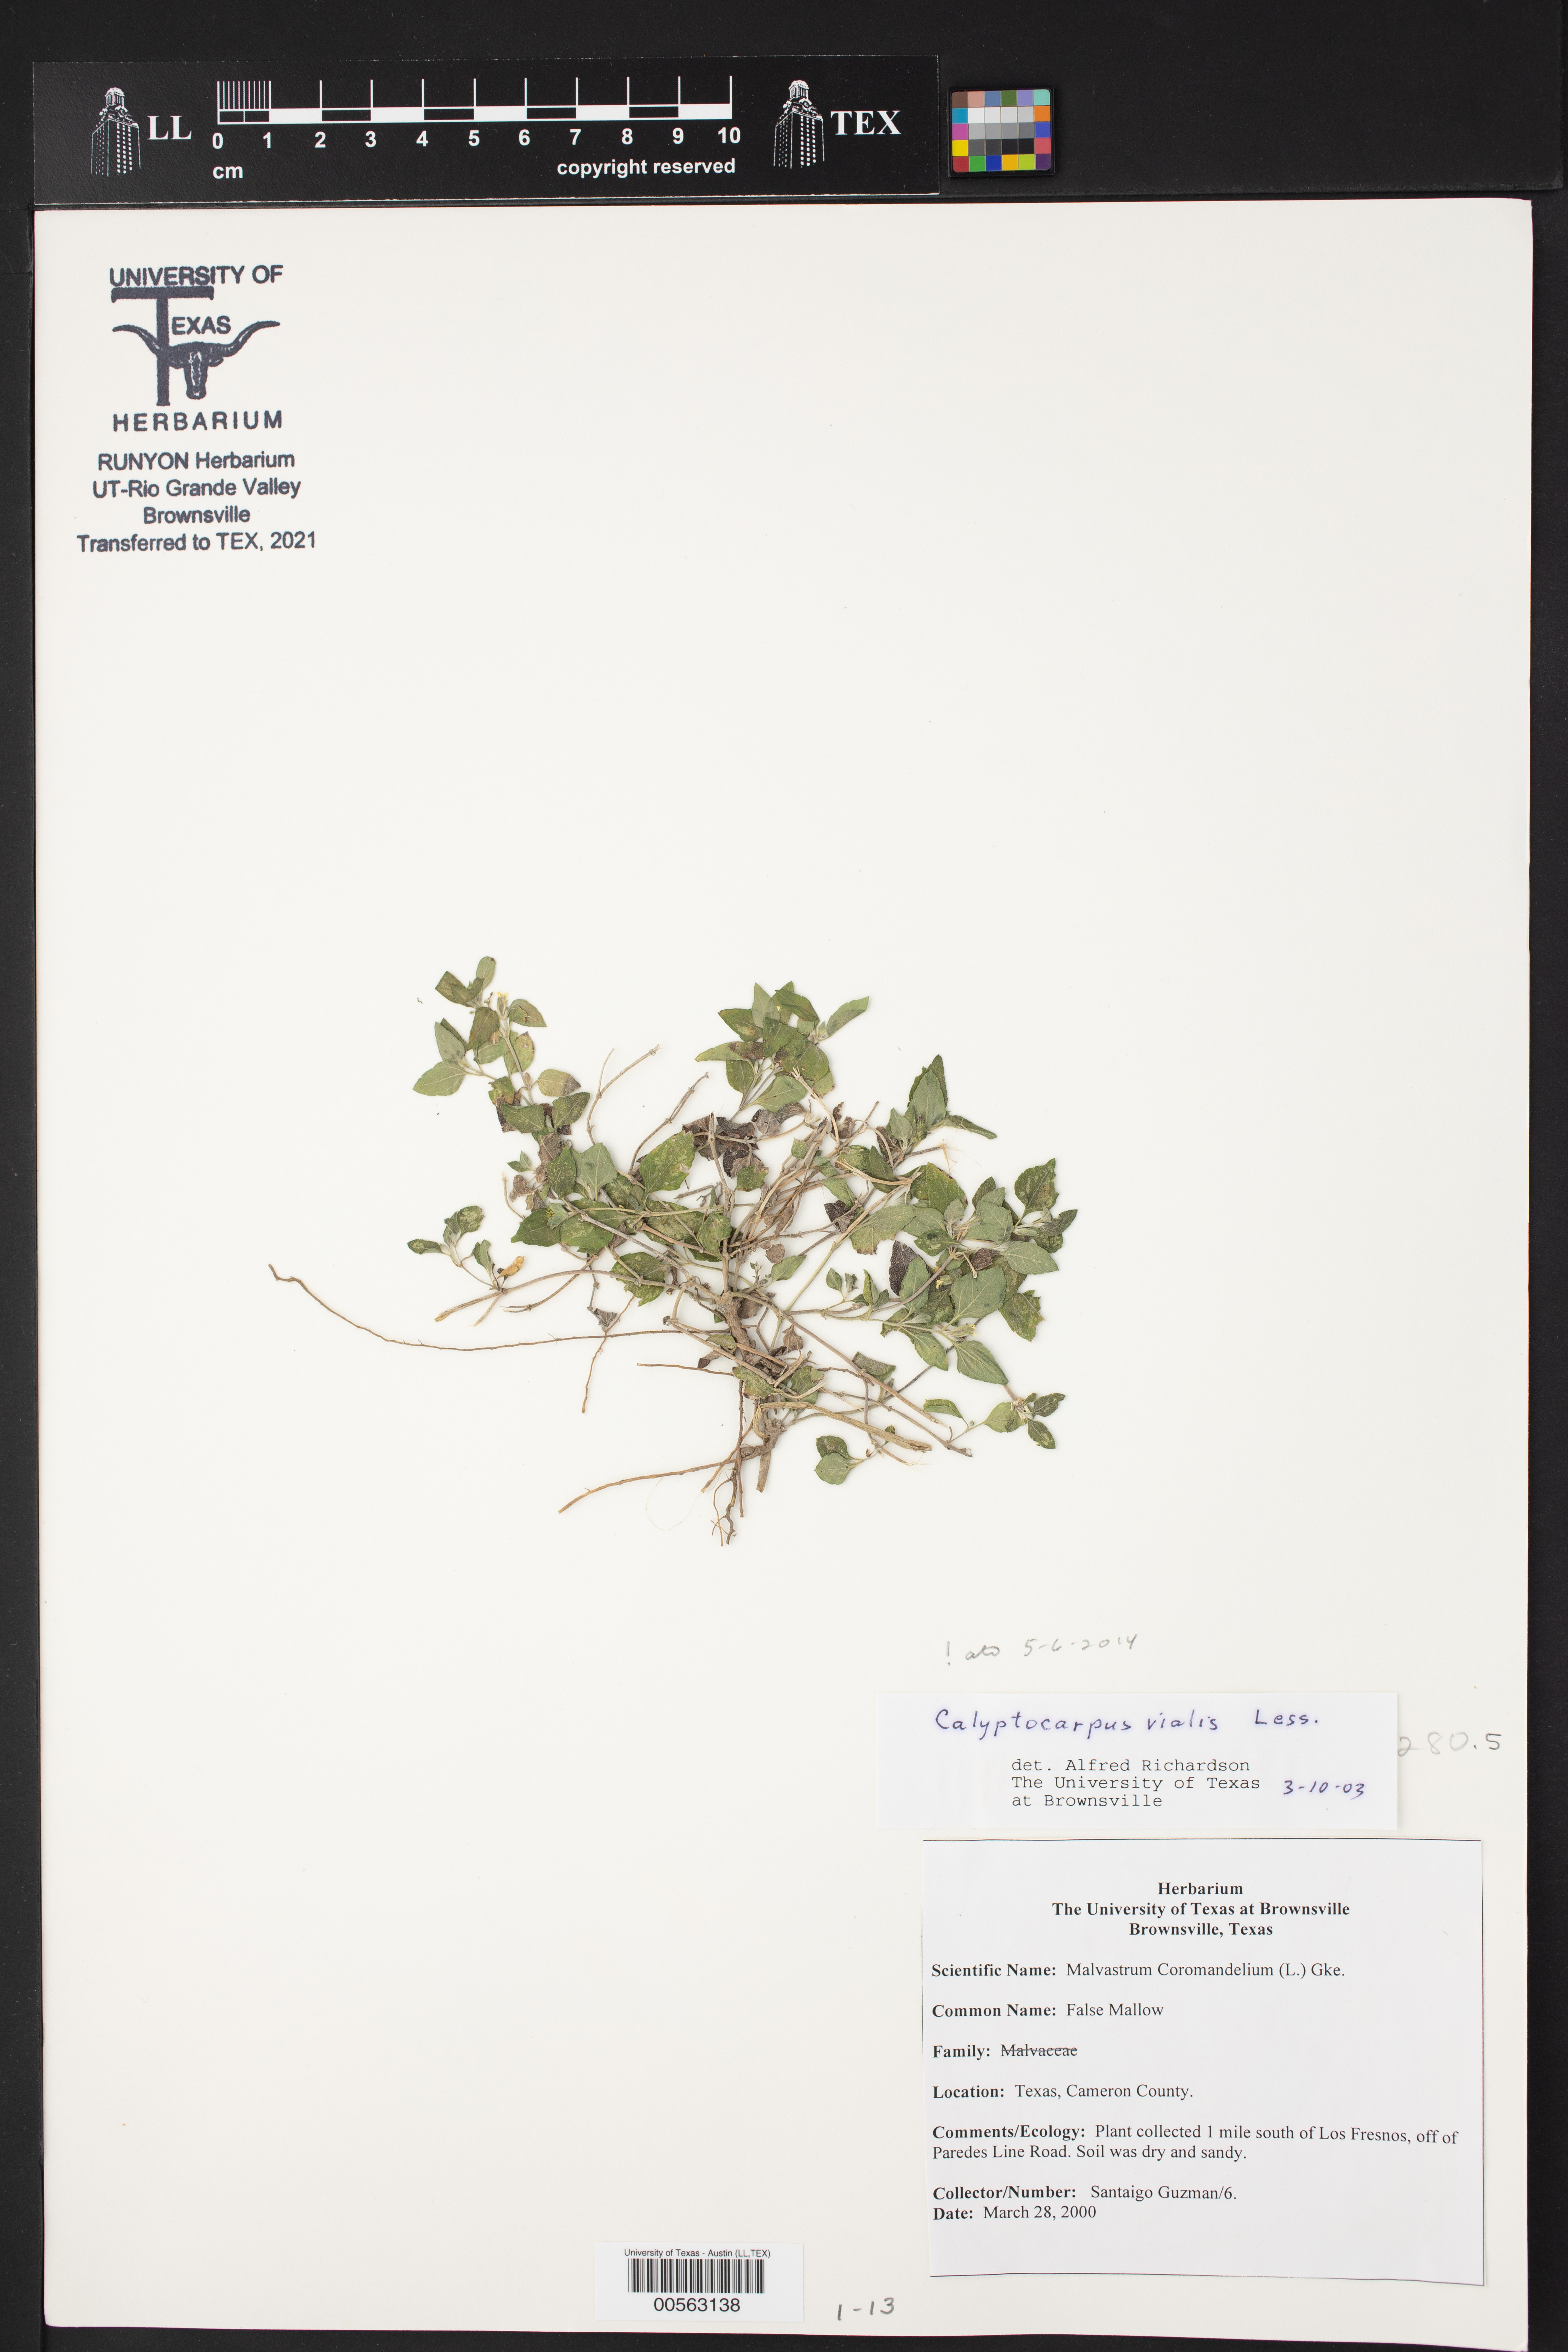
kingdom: Plantae
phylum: Tracheophyta
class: Magnoliopsida
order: Asterales
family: Asteraceae
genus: Calyptocarpus
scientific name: Calyptocarpus vialis
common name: Straggler daisy
